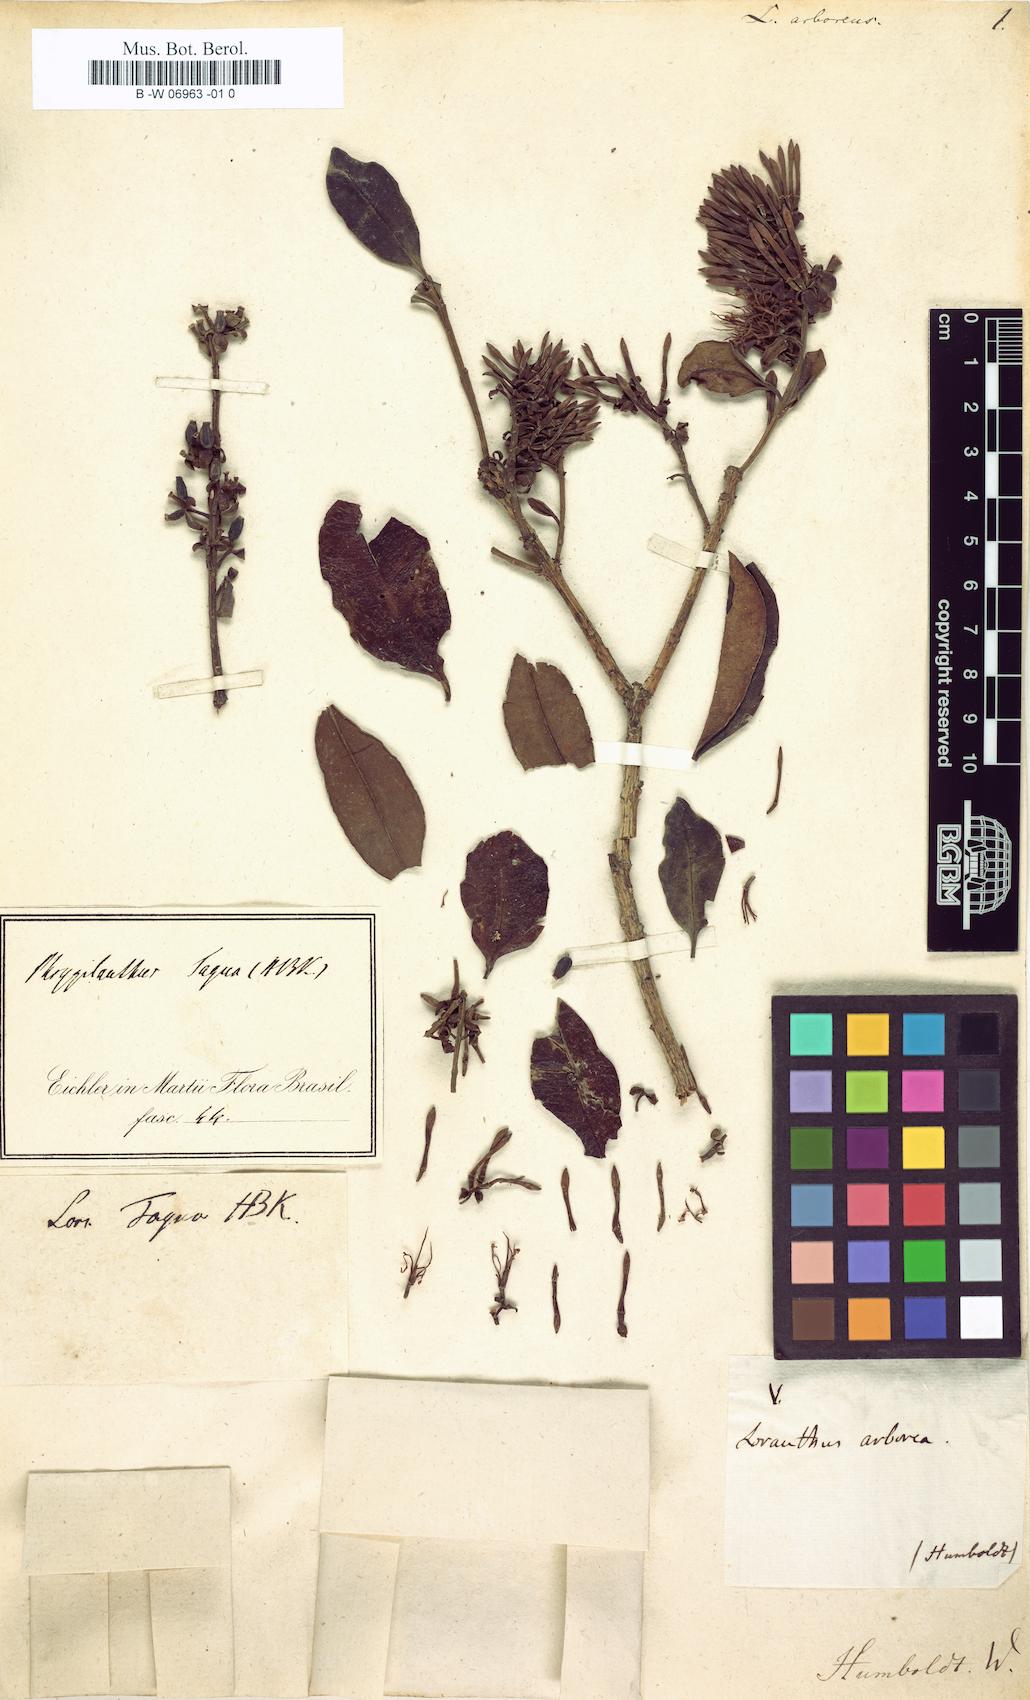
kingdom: Plantae
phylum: Tracheophyta
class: Magnoliopsida
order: Santalales
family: Loranthaceae
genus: Gaiadendron
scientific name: Gaiadendron punctatum
